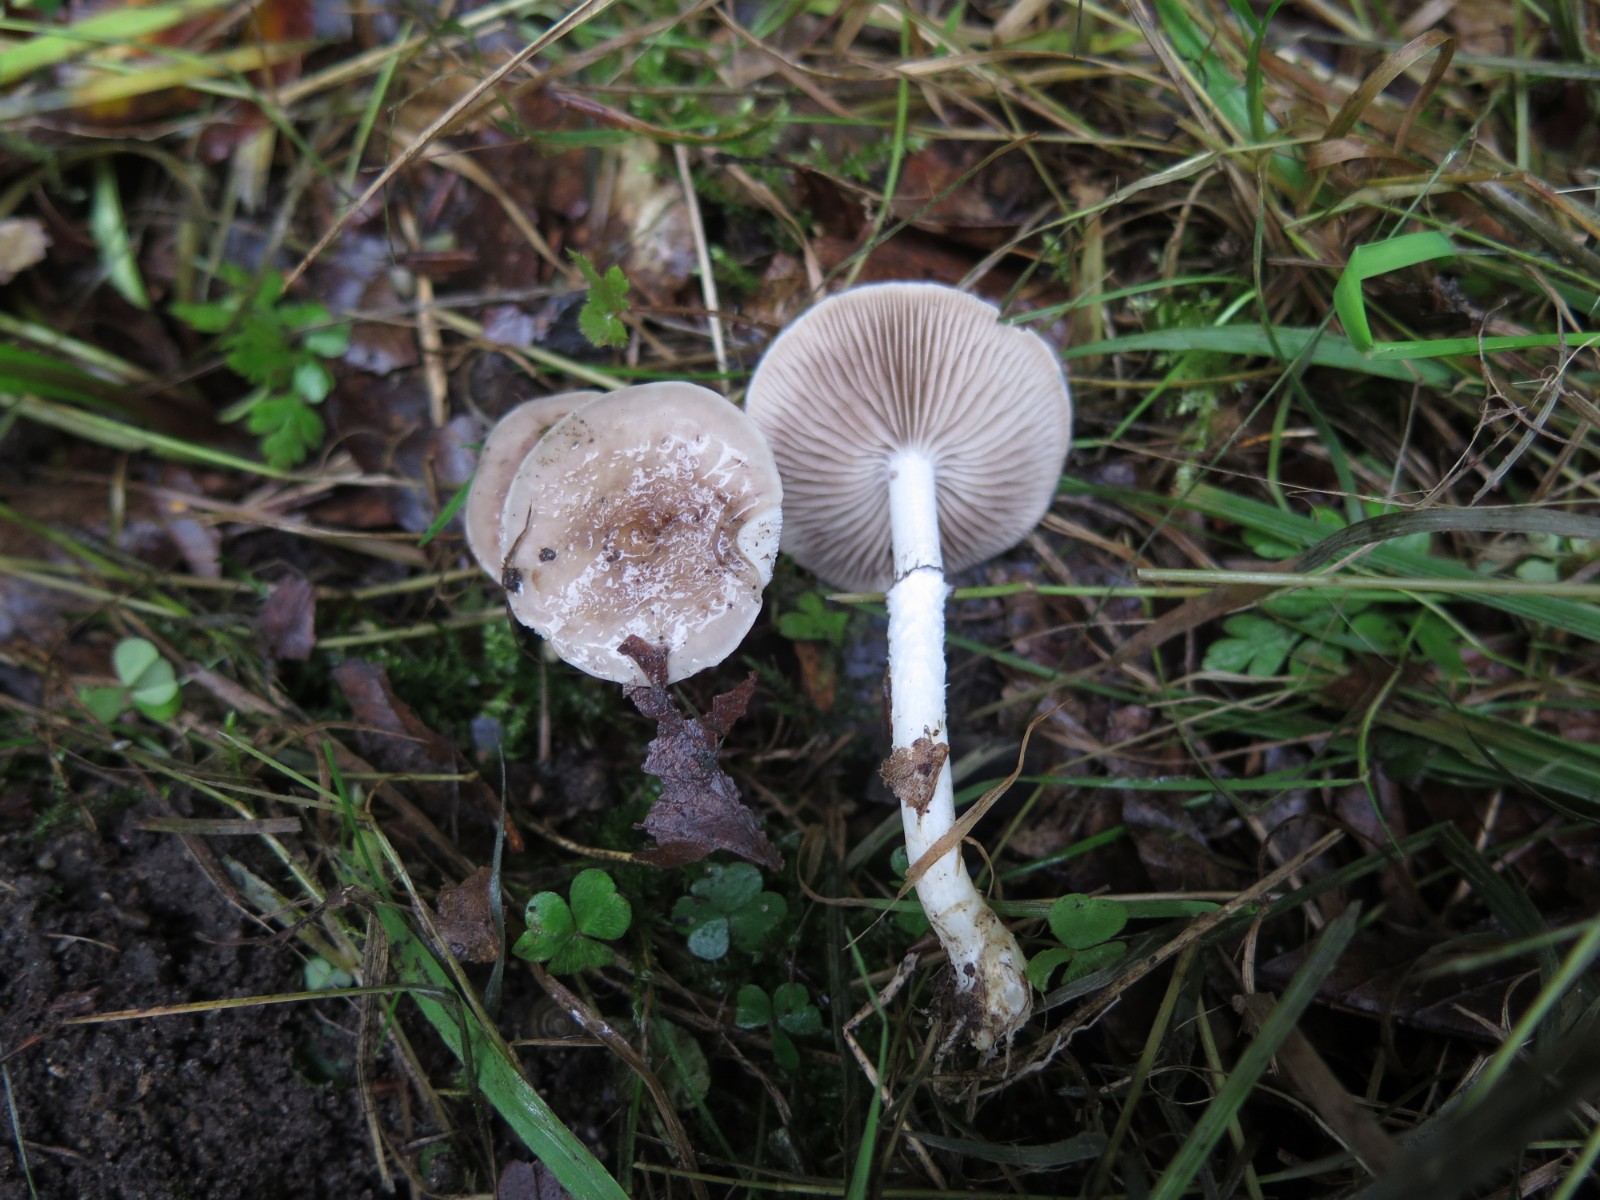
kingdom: Fungi
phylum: Basidiomycota
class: Agaricomycetes
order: Agaricales
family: Strophariaceae
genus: Stropharia
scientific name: Stropharia inuncta
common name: lillabrun bredblad
